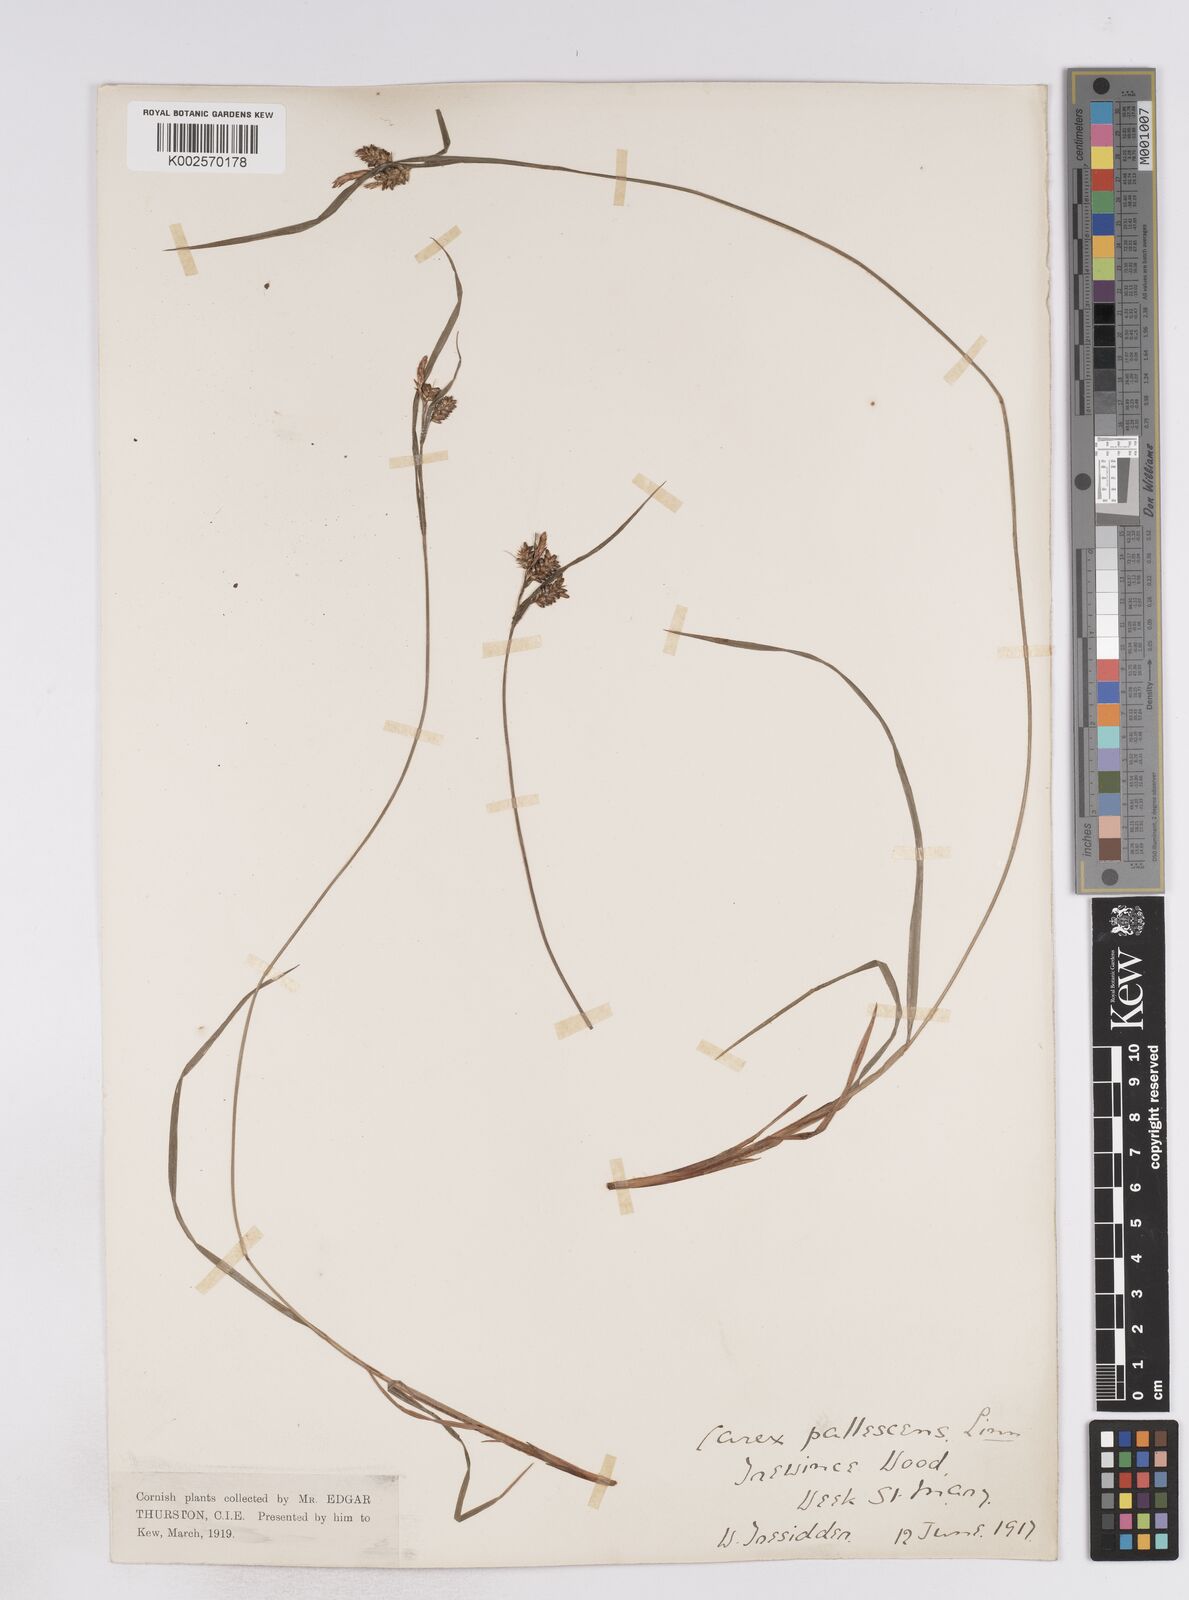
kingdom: Plantae
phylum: Tracheophyta
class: Liliopsida
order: Poales
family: Cyperaceae
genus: Carex
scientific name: Carex pallescens
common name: Pale sedge
